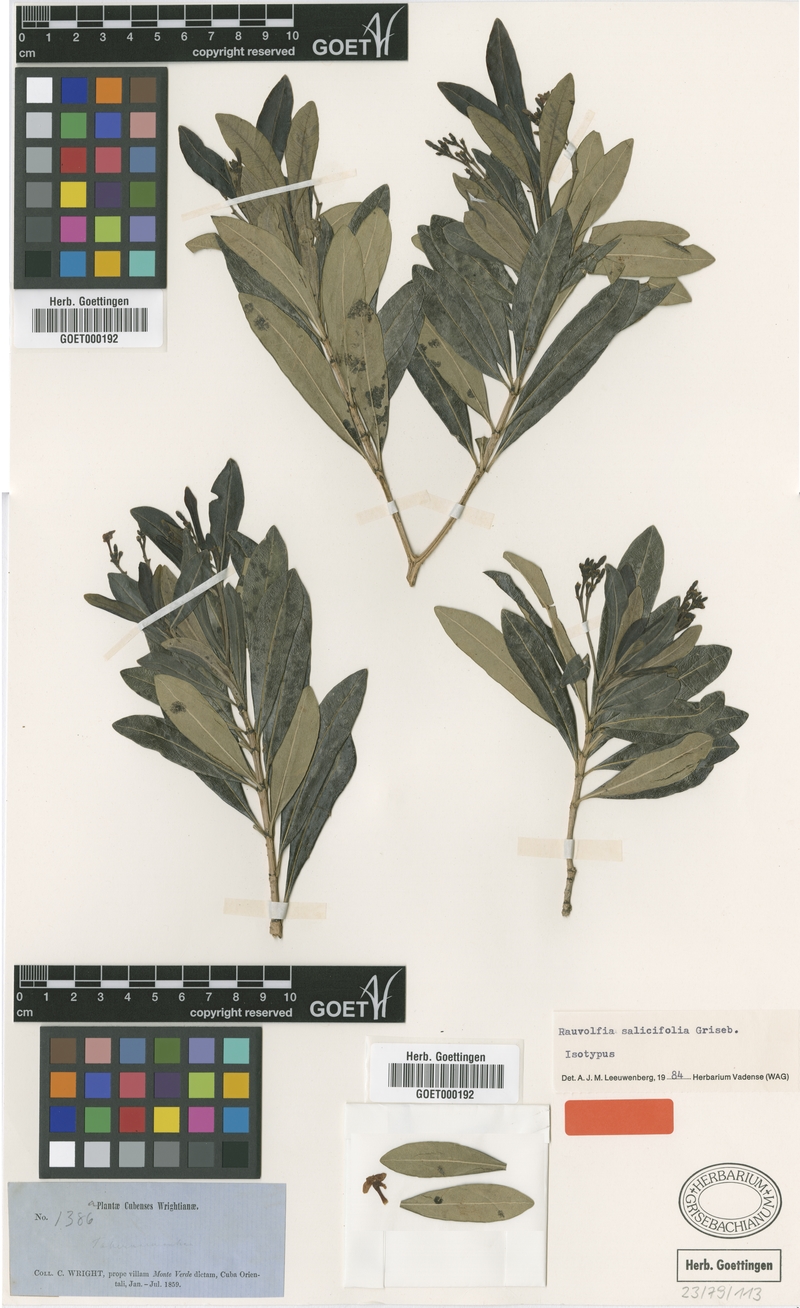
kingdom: Plantae
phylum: Tracheophyta
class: Magnoliopsida
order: Gentianales
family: Apocynaceae
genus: Rauvolfia
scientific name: Rauvolfia salicifolia
